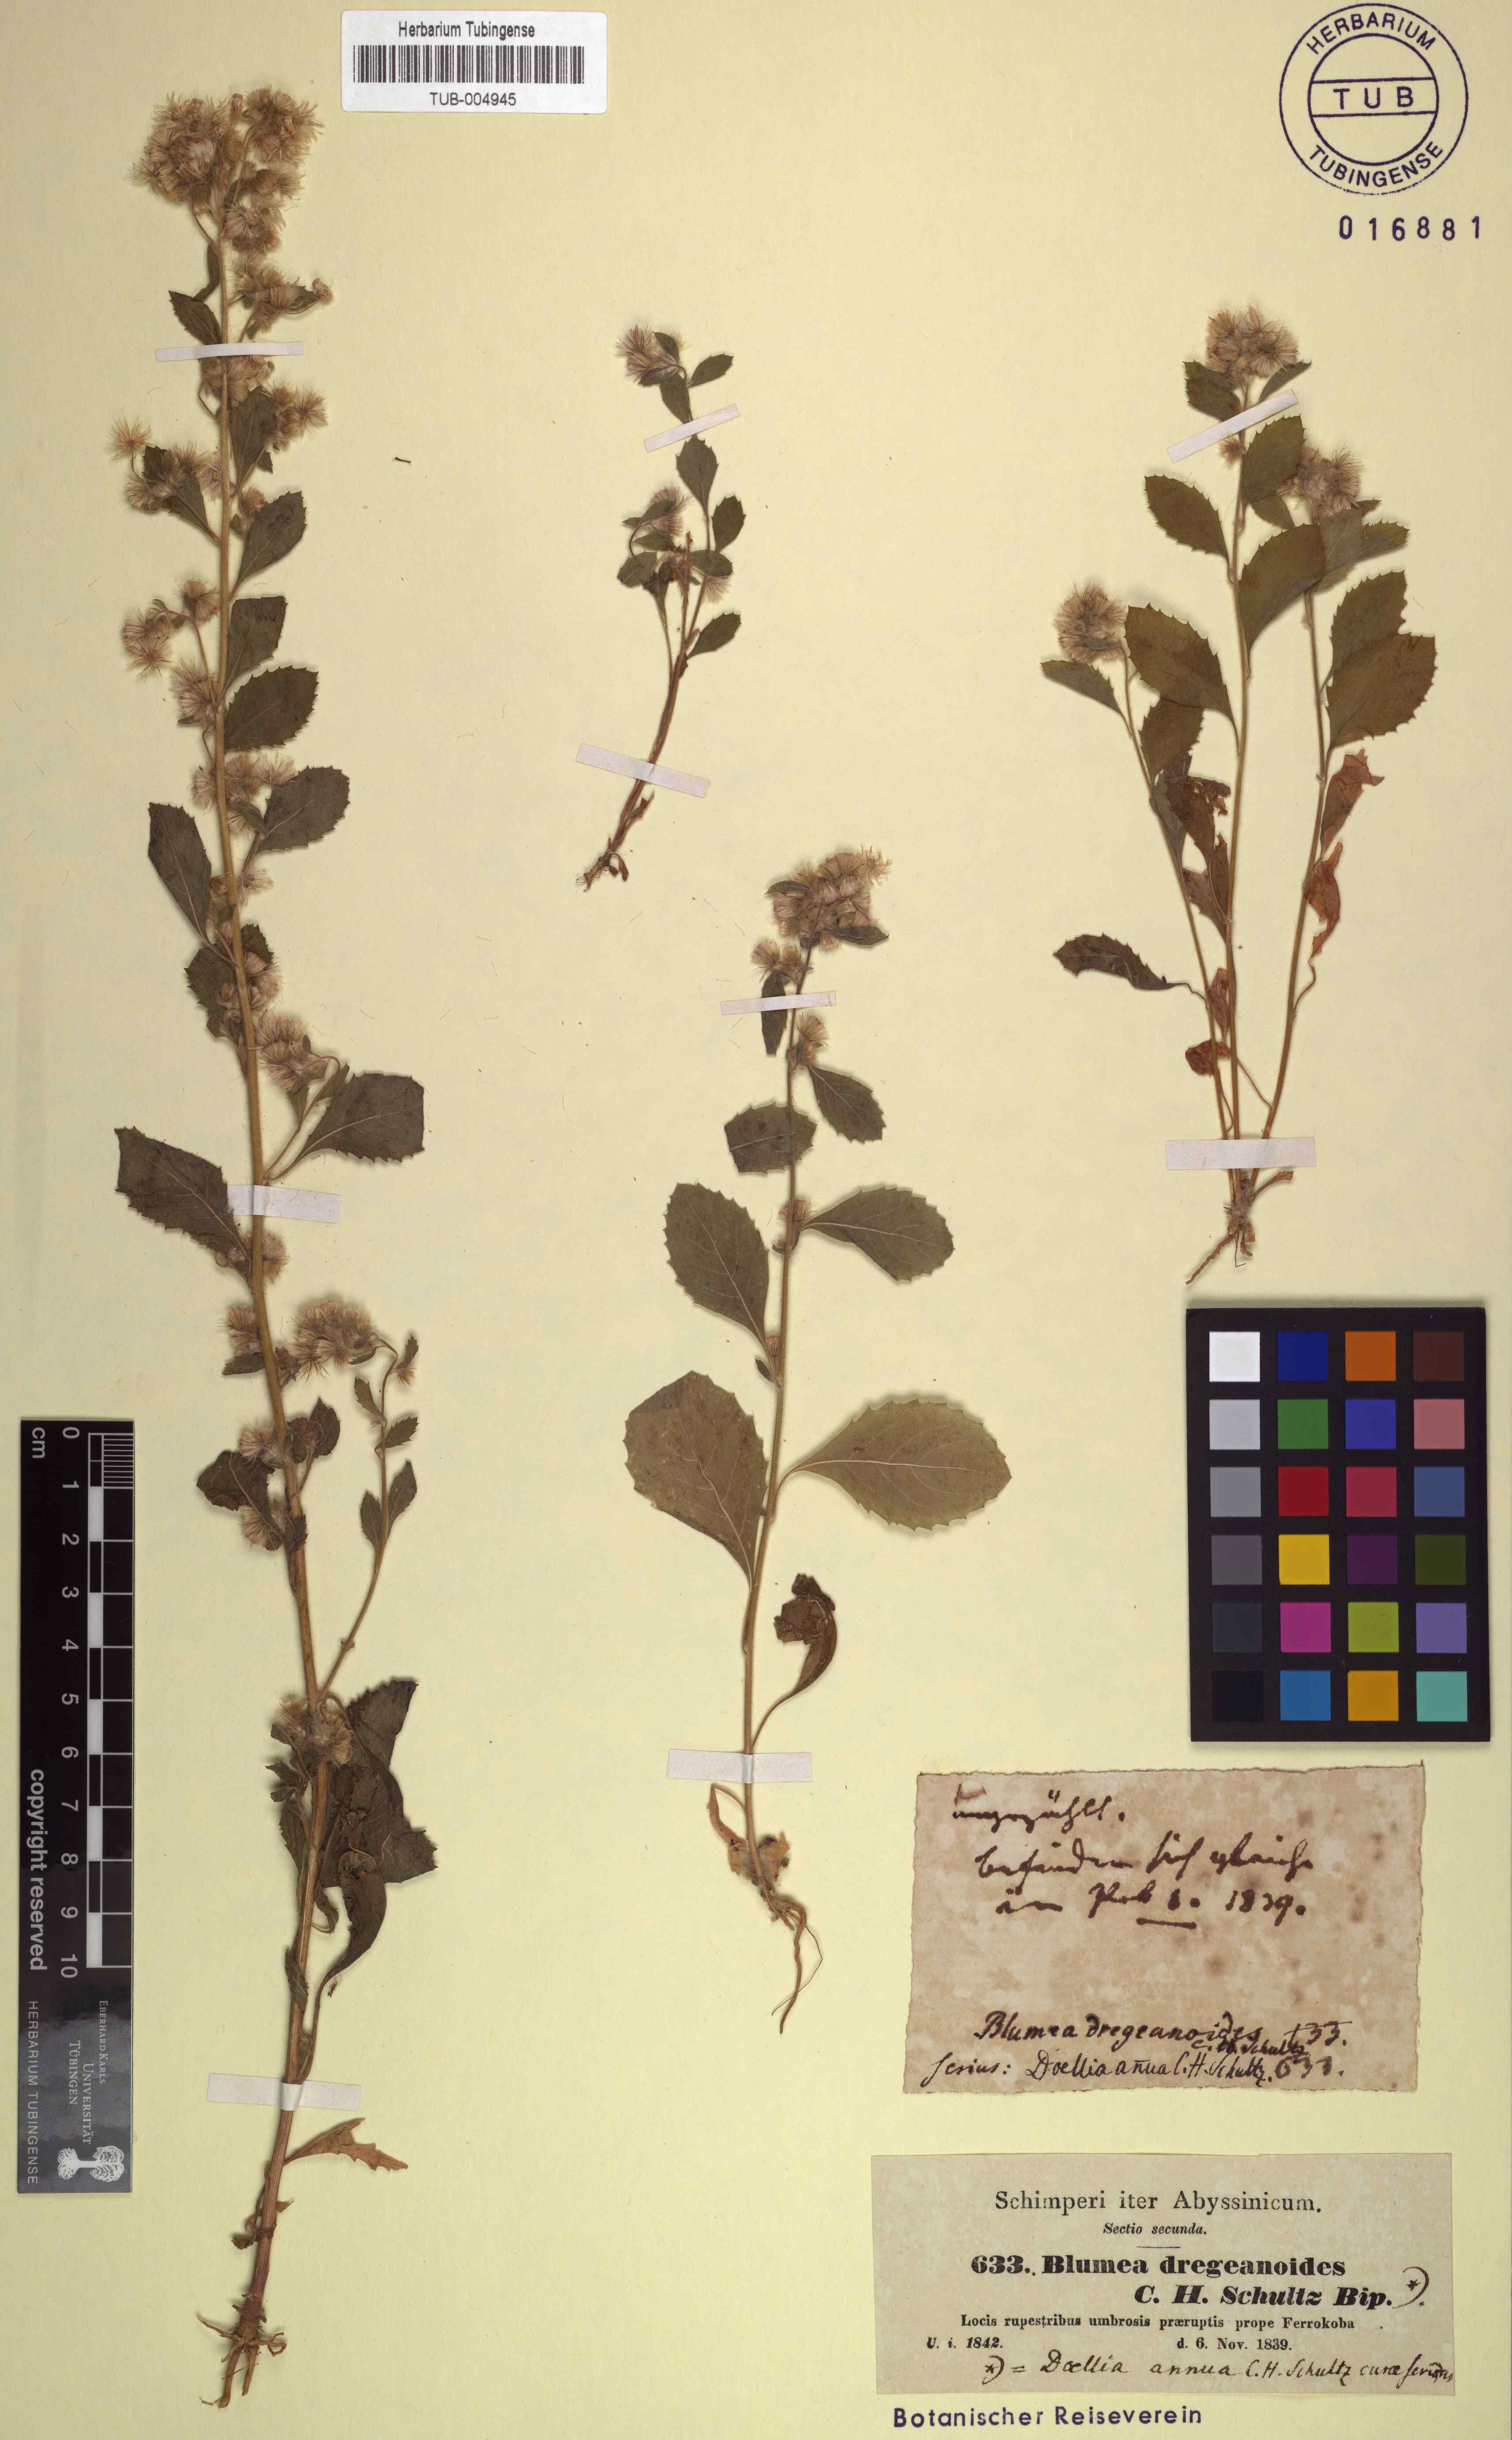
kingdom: Plantae
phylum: Tracheophyta
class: Magnoliopsida
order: Asterales
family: Asteraceae
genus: Blumea
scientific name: Blumea lacera
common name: Malay blumea
